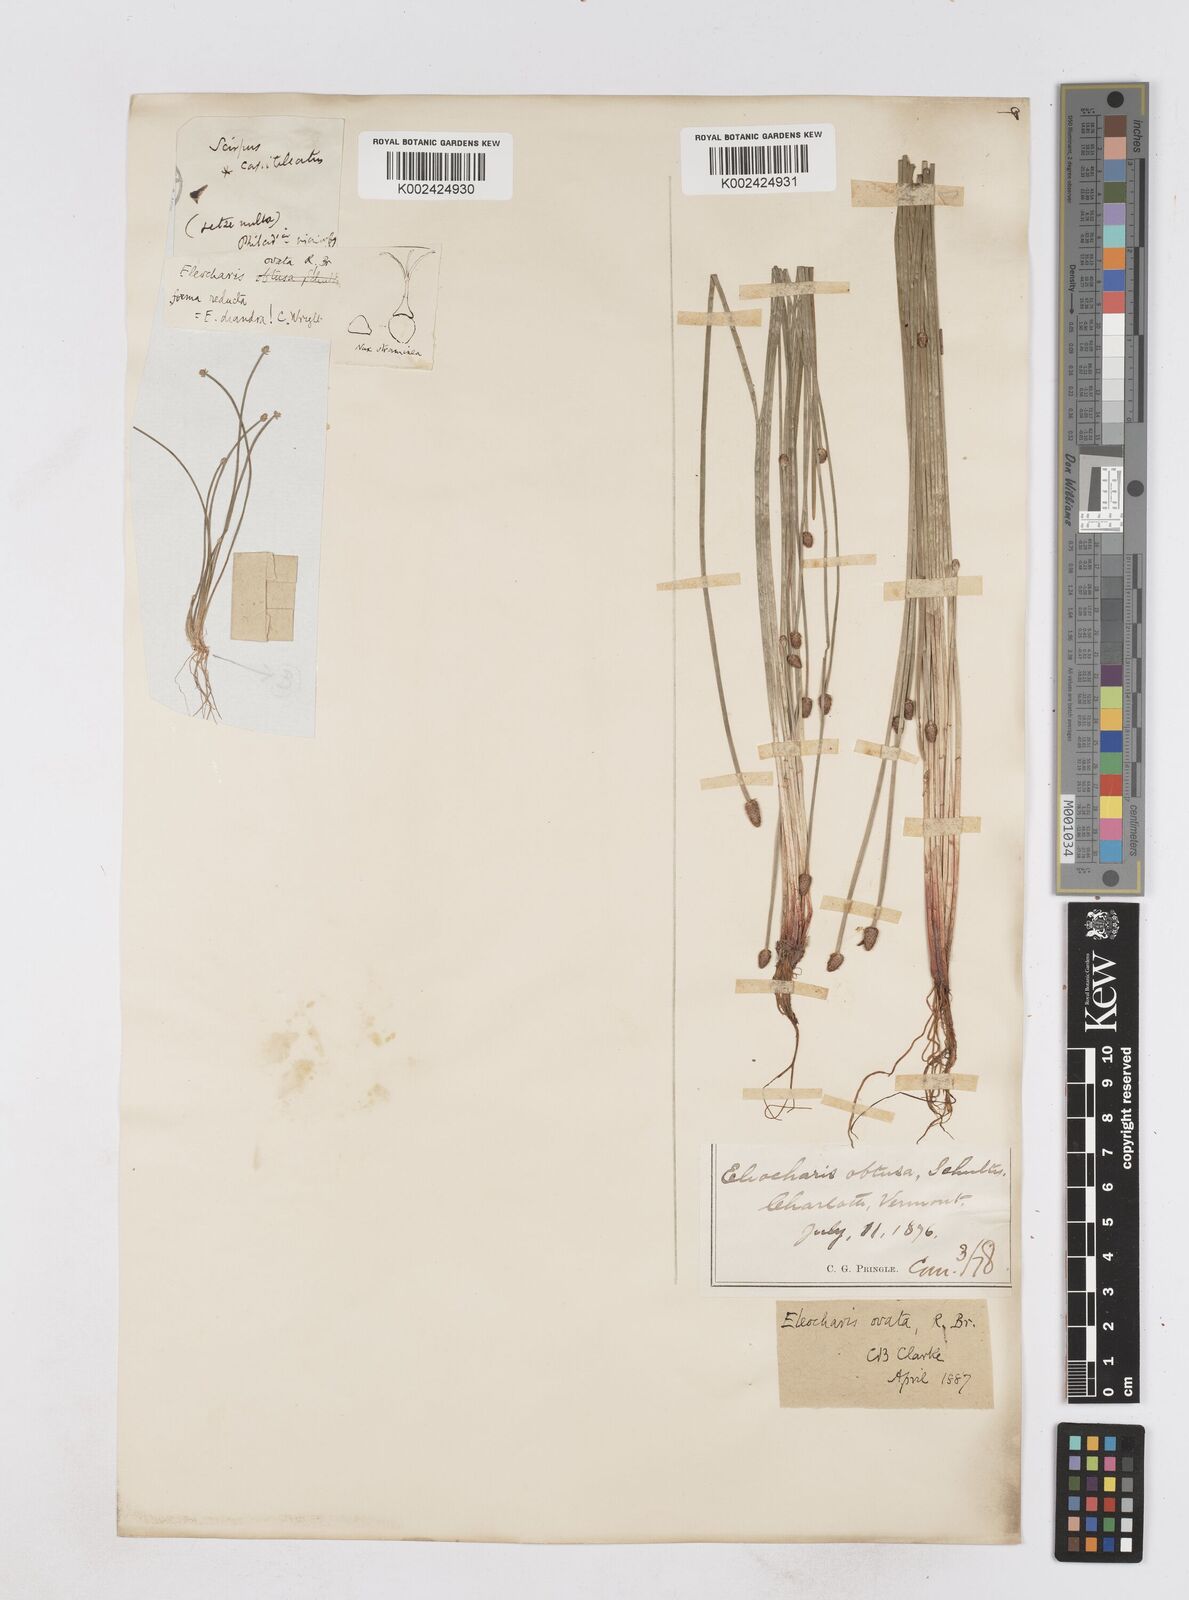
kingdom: Plantae
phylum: Tracheophyta
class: Liliopsida
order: Poales
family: Cyperaceae
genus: Eleocharis
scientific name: Eleocharis ovata
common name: Oval spike-rush
